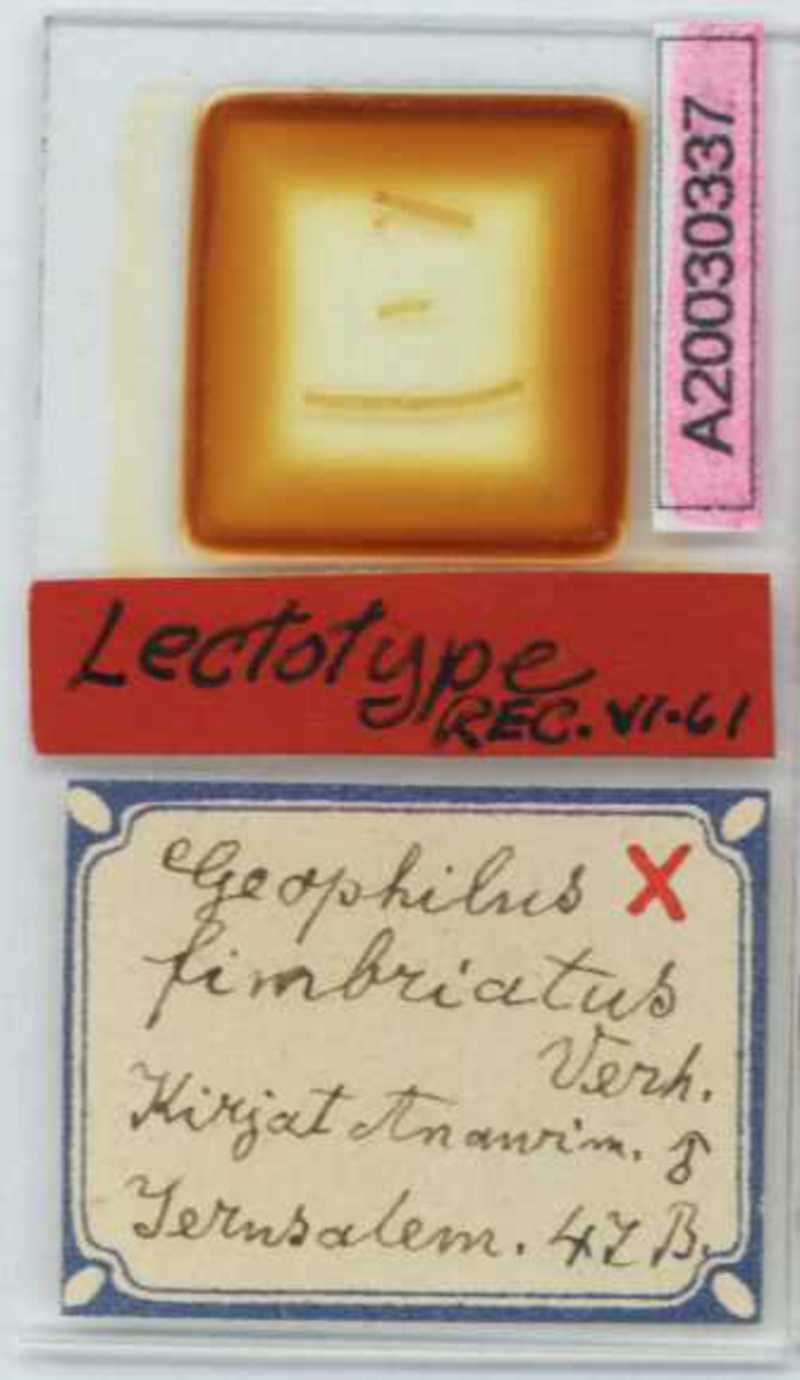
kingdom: Animalia
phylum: Arthropoda
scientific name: Arthropoda
